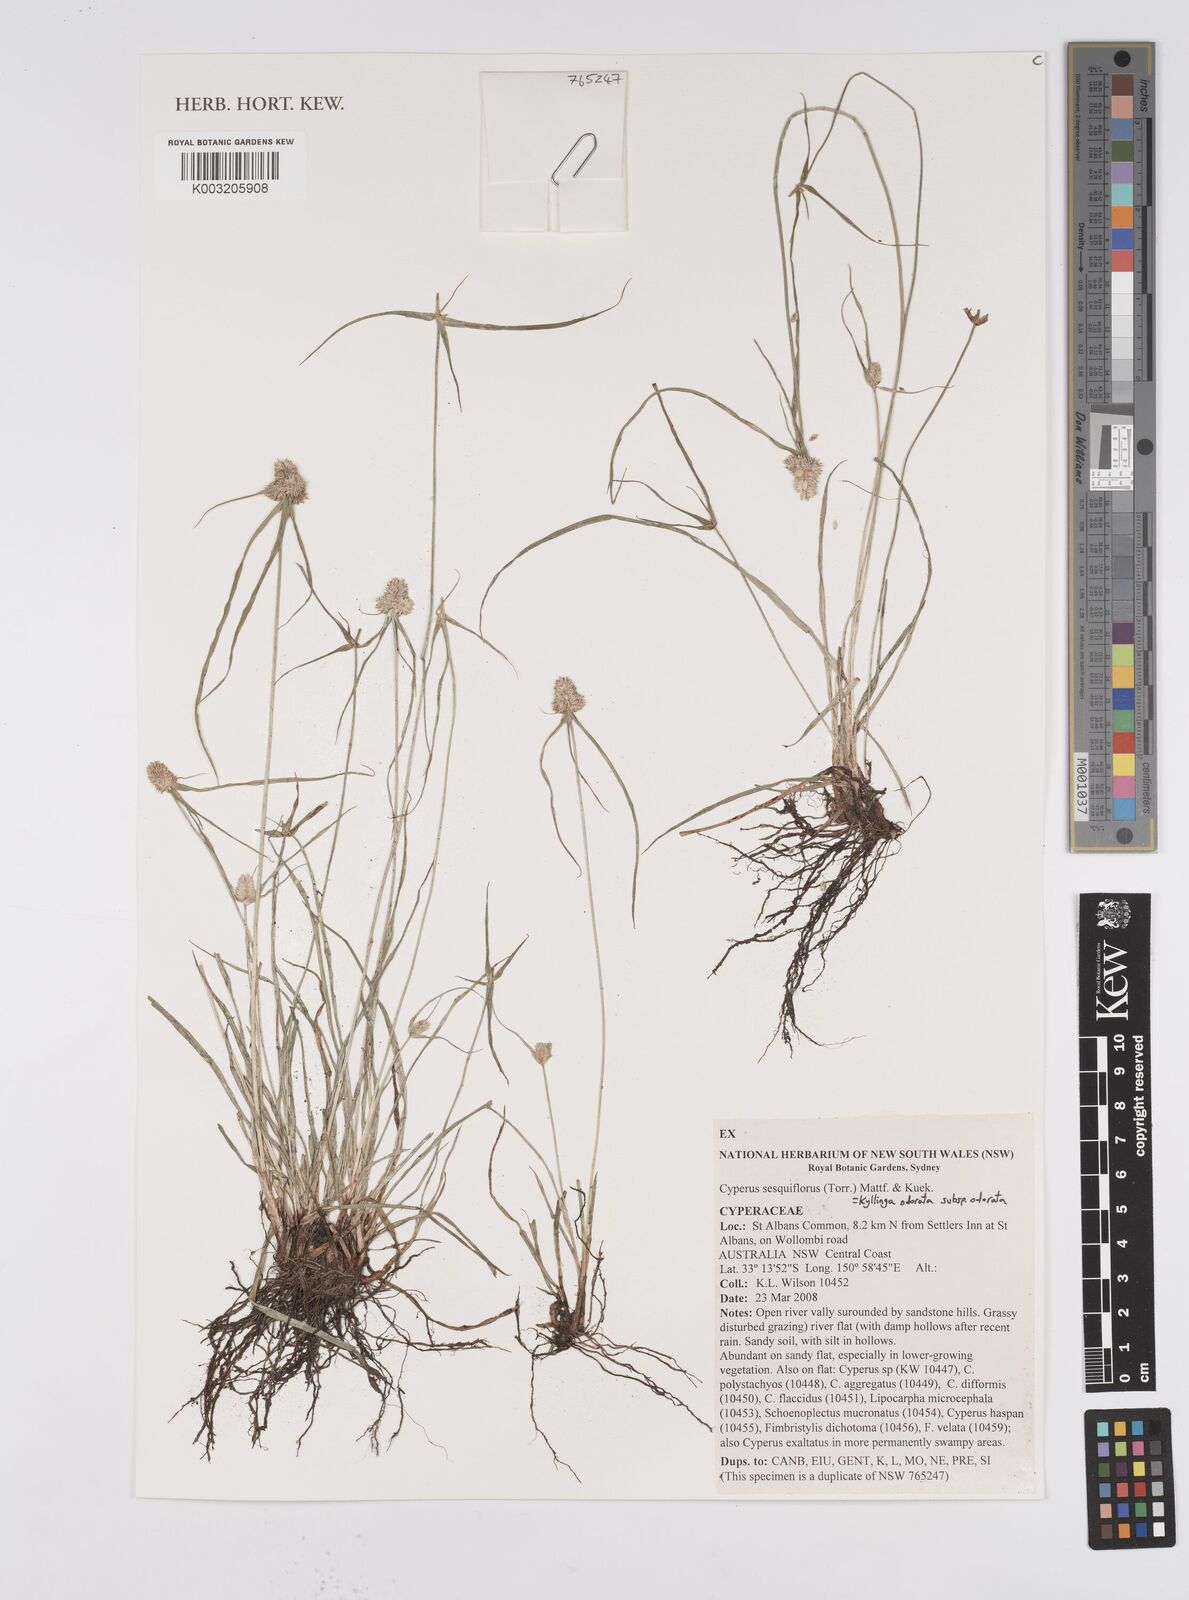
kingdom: Plantae
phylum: Tracheophyta
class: Liliopsida
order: Poales
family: Cyperaceae
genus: Cyperus
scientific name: Cyperus
